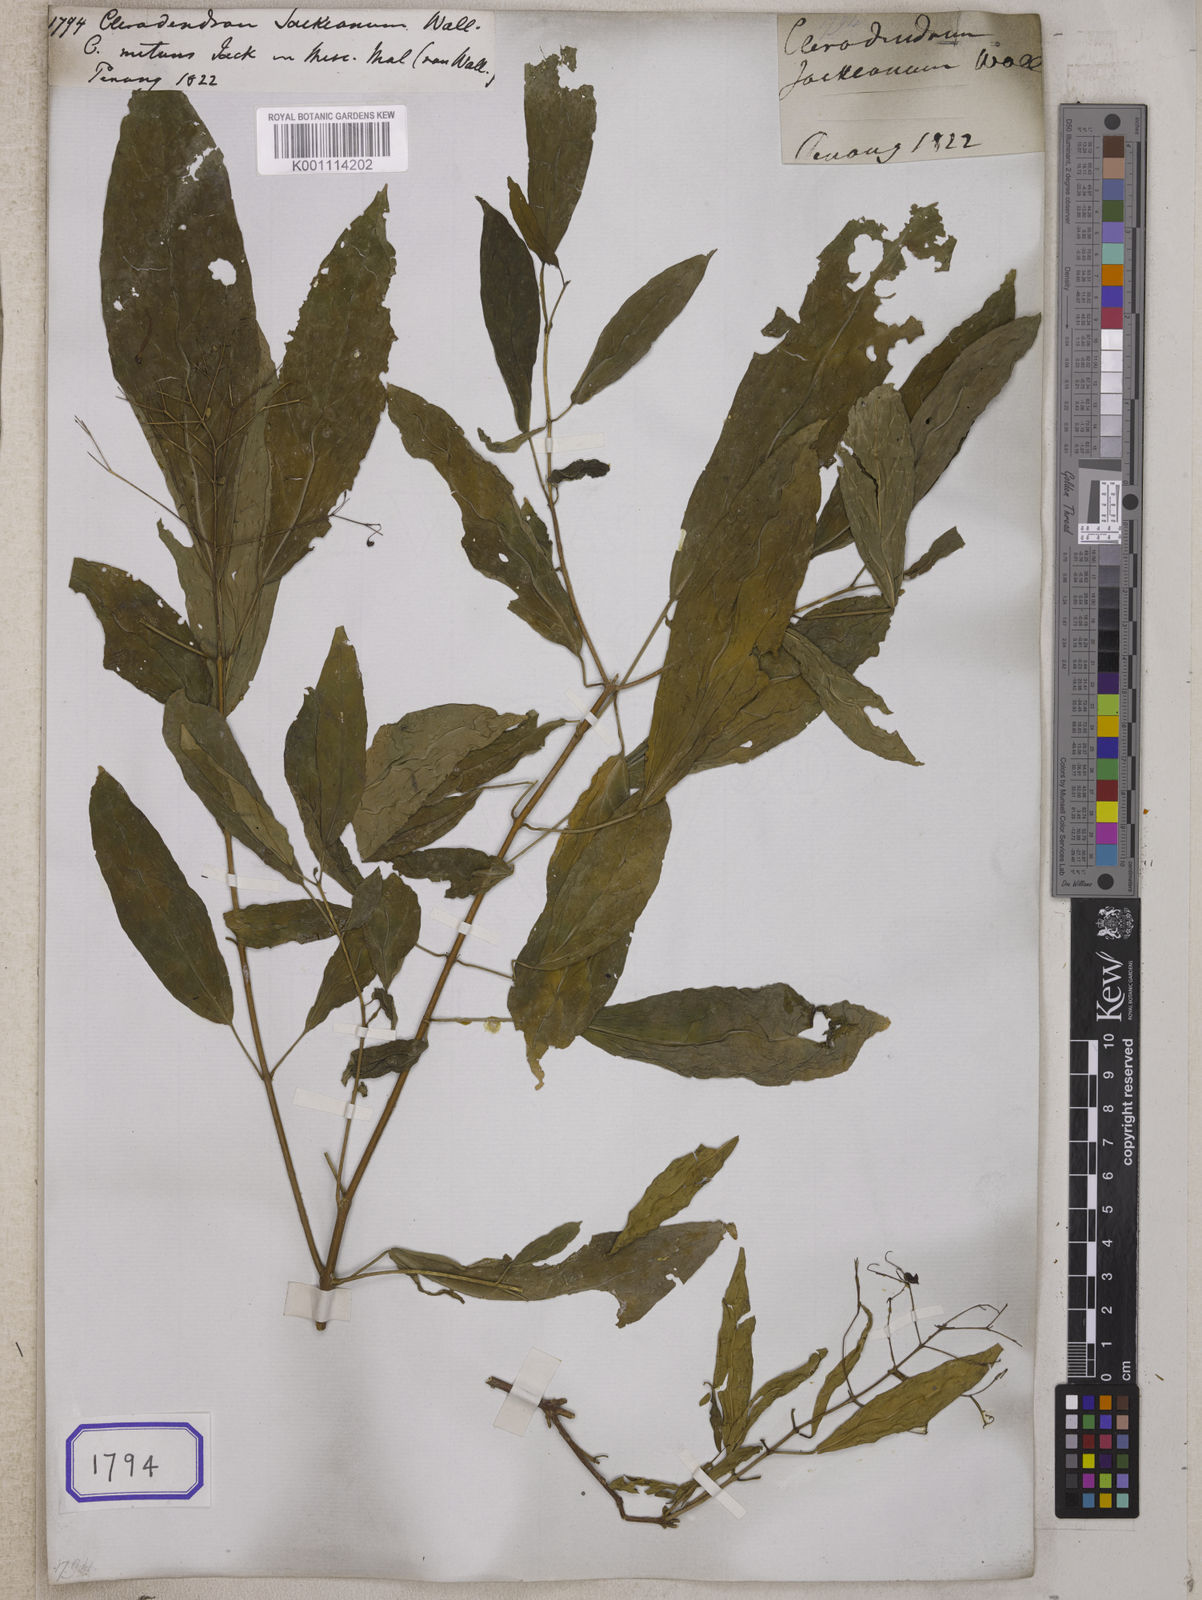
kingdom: Plantae
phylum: Tracheophyta
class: Magnoliopsida
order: Lamiales
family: Lamiaceae
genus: Clerodendrum
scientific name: Clerodendrum nutans
